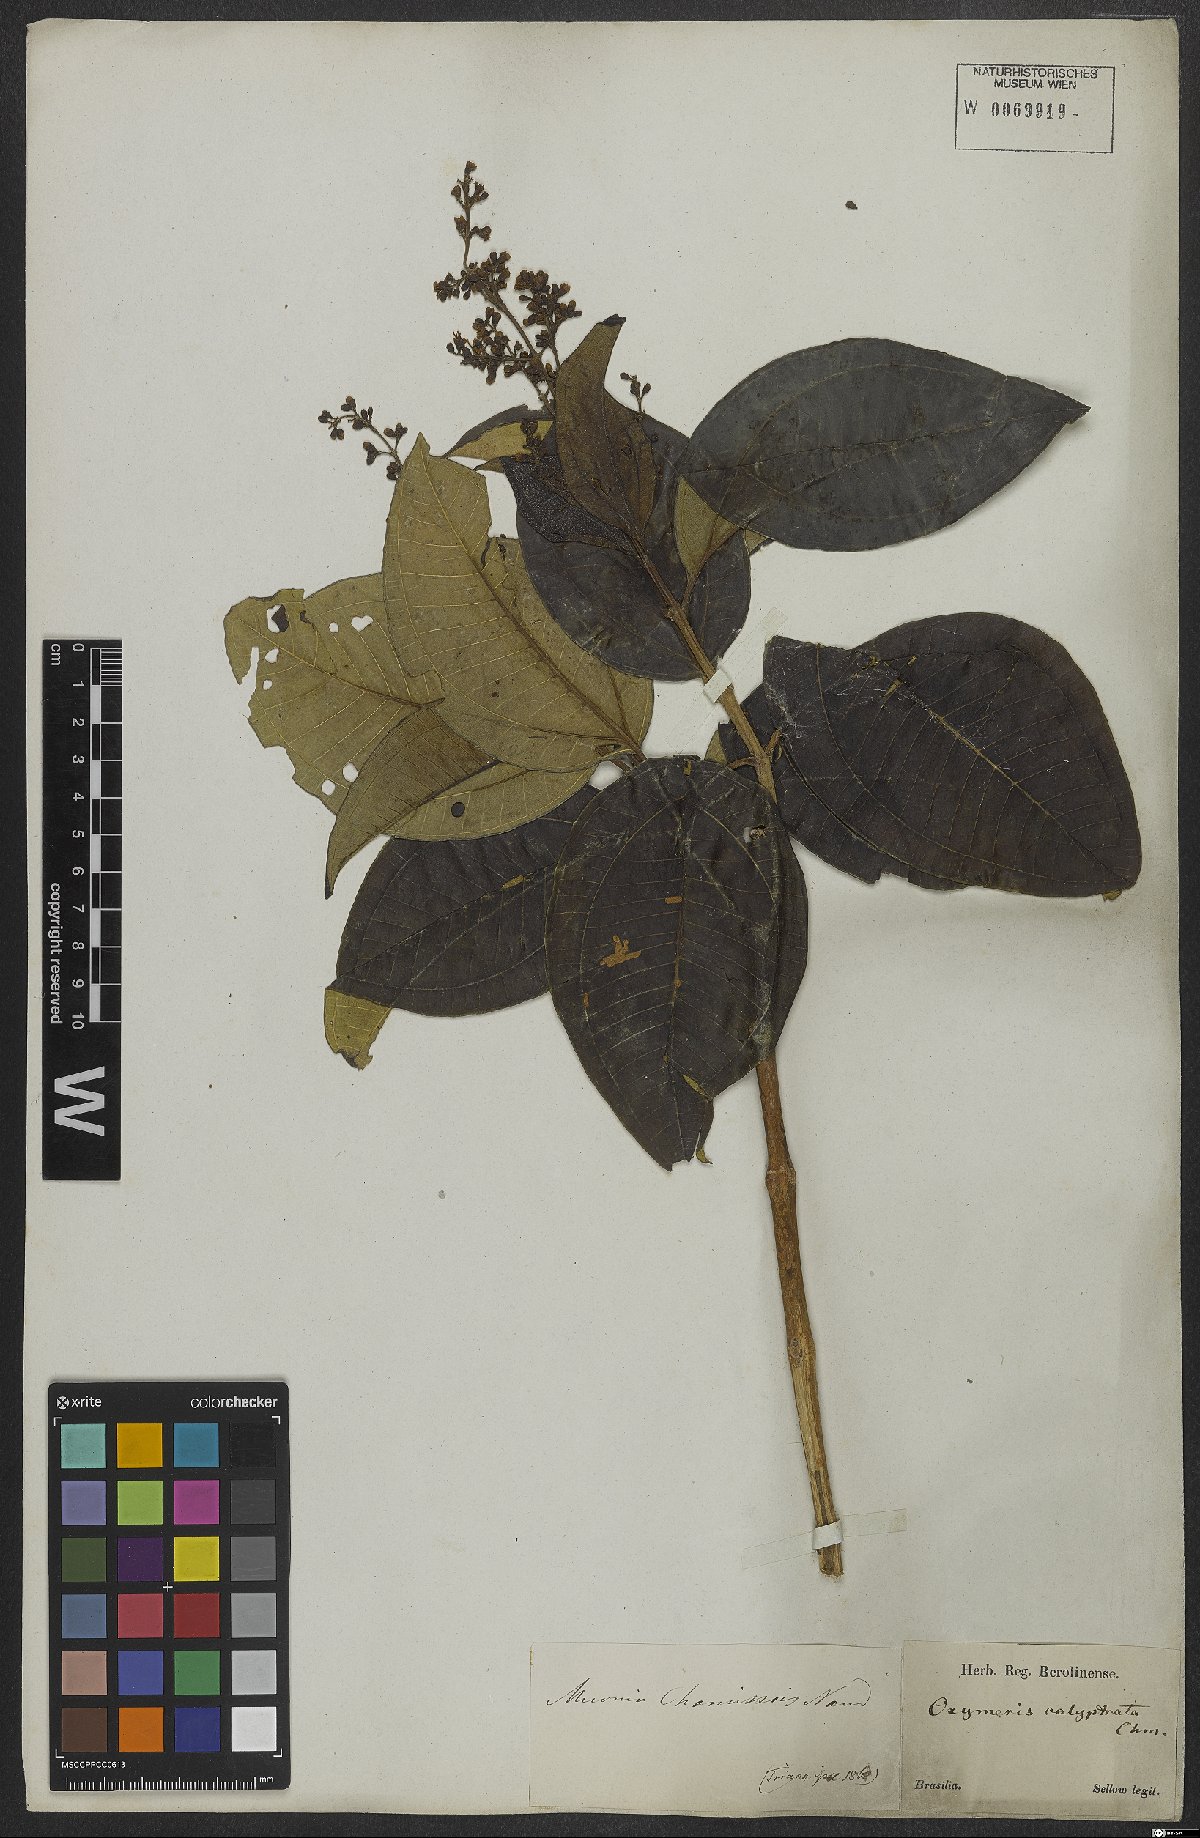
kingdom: Plantae
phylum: Tracheophyta
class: Magnoliopsida
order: Myrtales
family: Melastomataceae
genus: Miconia
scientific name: Miconia chamissois
